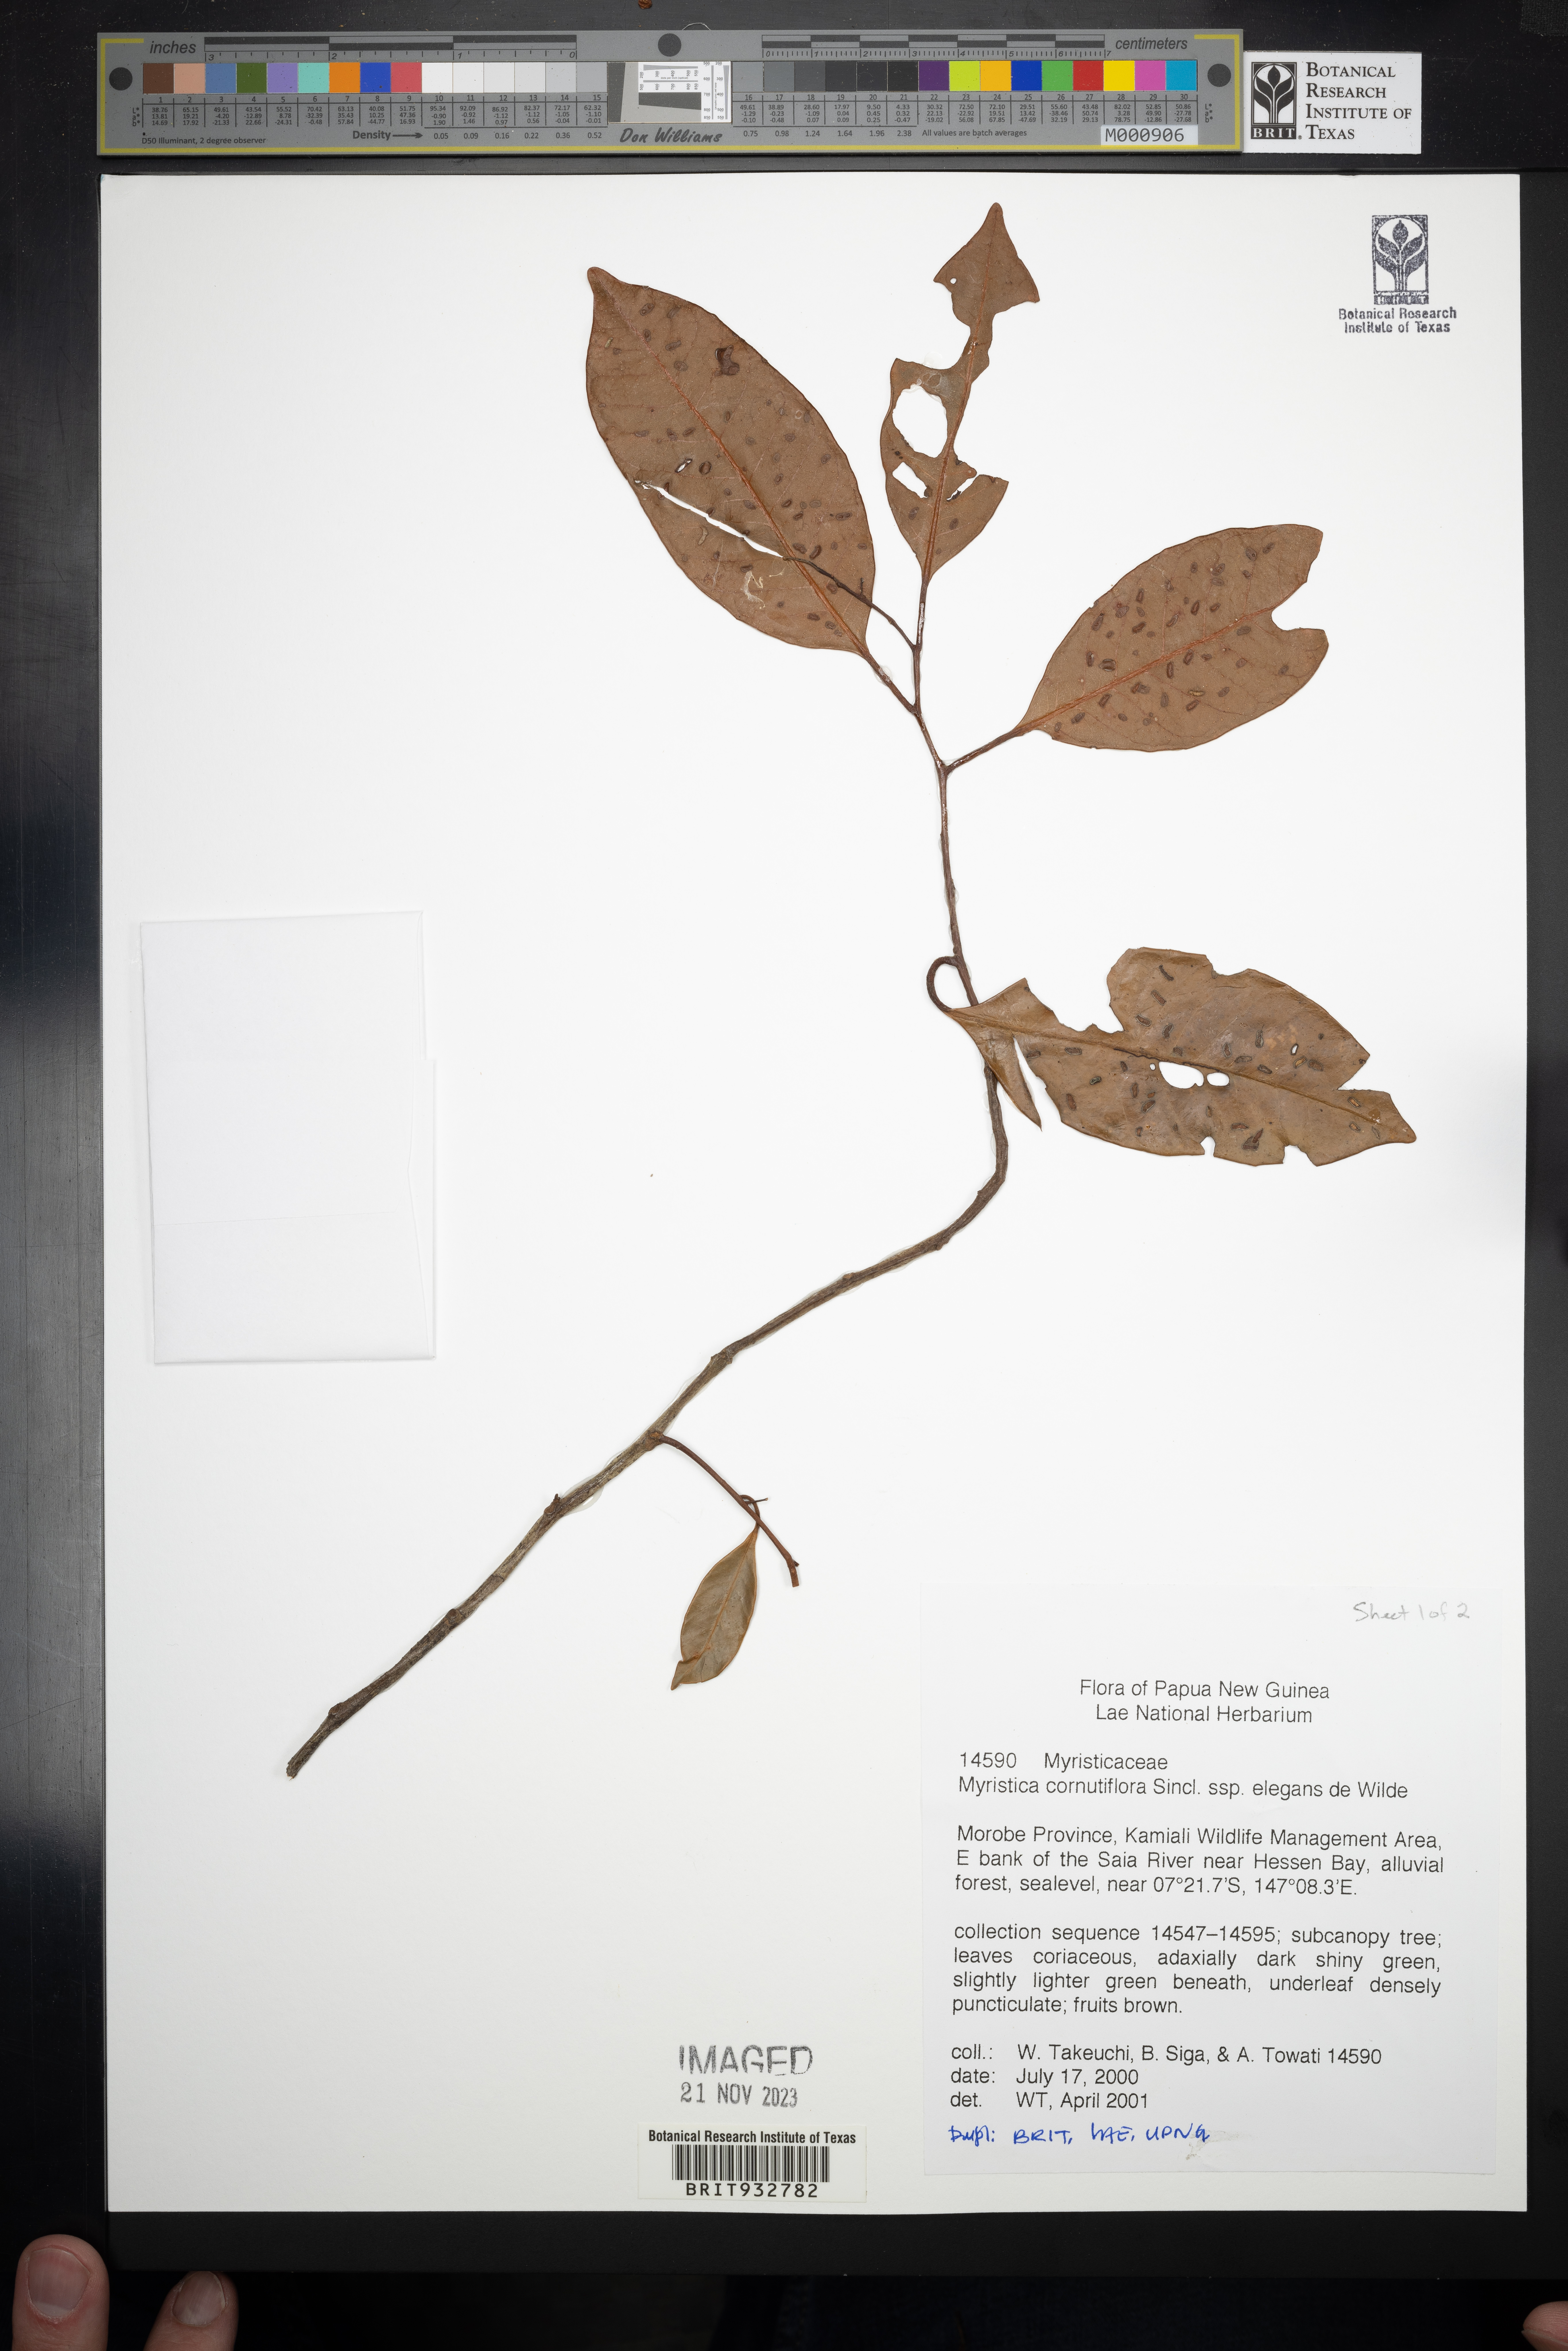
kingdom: Plantae
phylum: Tracheophyta
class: Magnoliopsida
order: Magnoliales
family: Myristicaceae
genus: Myristica
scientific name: Myristica
